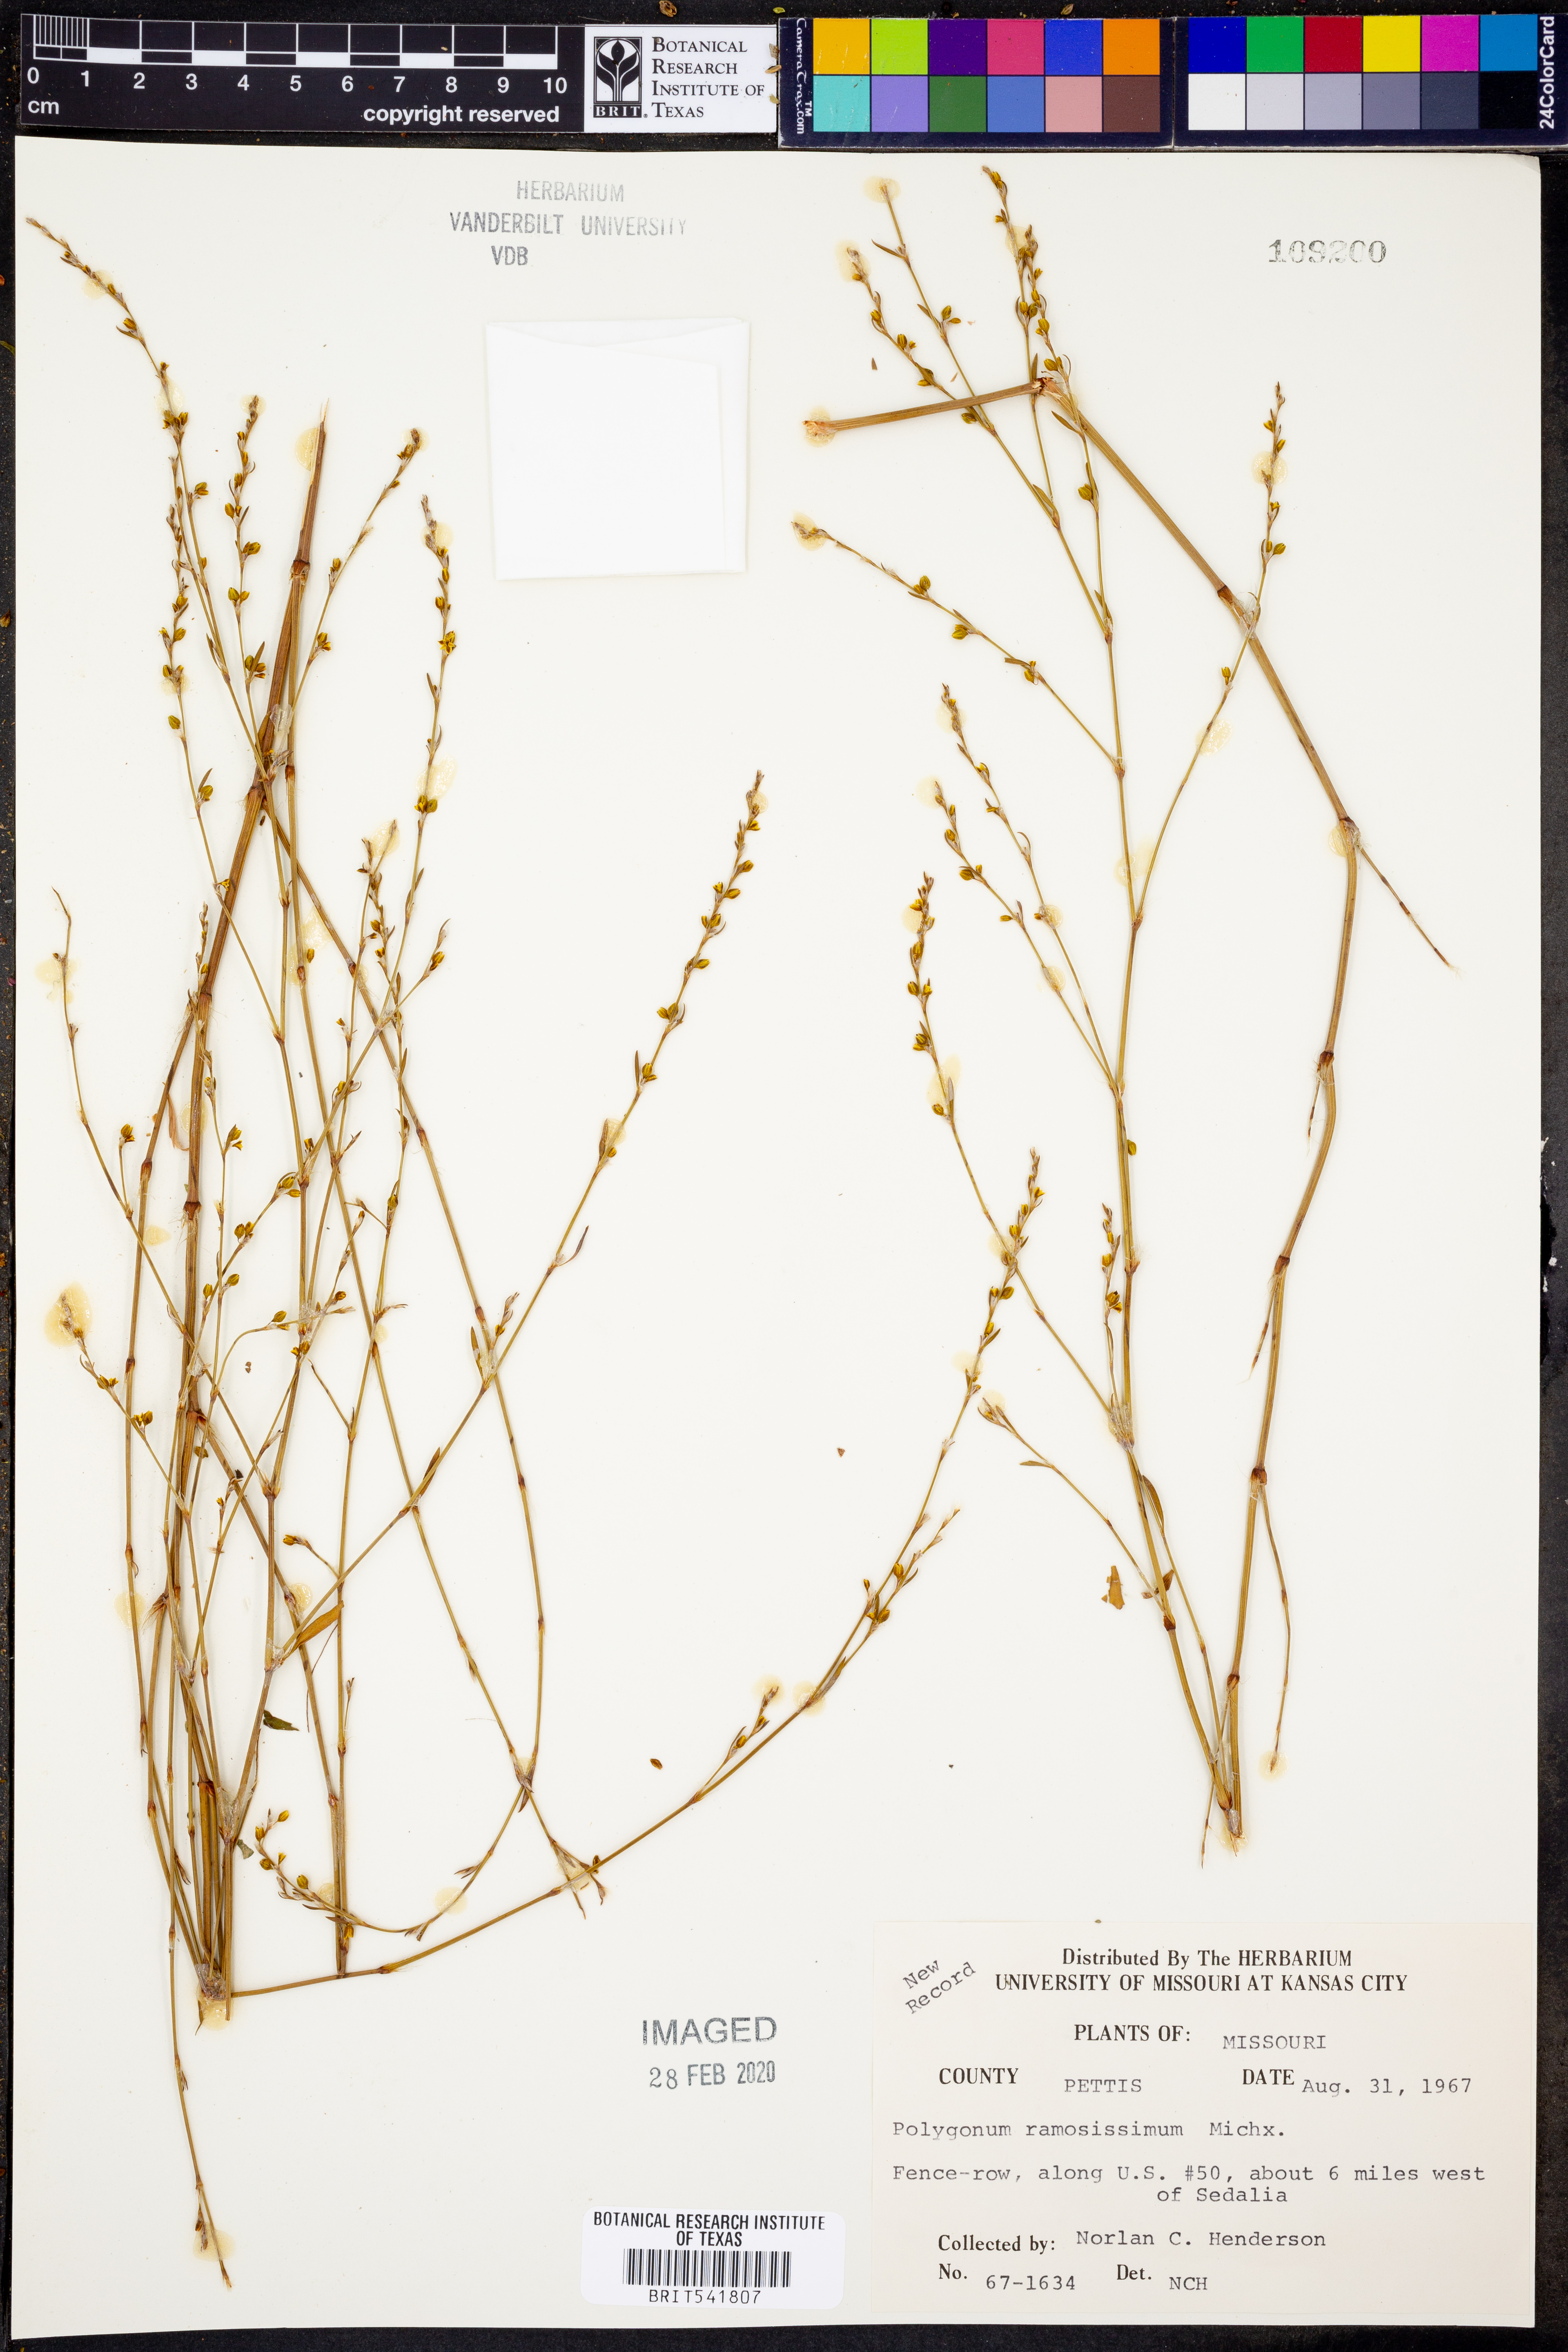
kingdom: Plantae
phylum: Tracheophyta
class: Magnoliopsida
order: Caryophyllales
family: Polygonaceae
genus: Polygonum
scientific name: Polygonum ramosissimum
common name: Bushy knotweed
